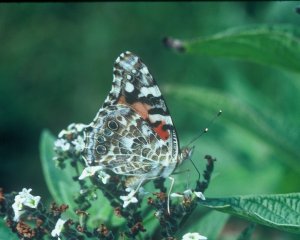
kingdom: Animalia
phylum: Arthropoda
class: Insecta
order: Lepidoptera
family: Nymphalidae
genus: Vanessa
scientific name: Vanessa cardui
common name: Painted Lady
